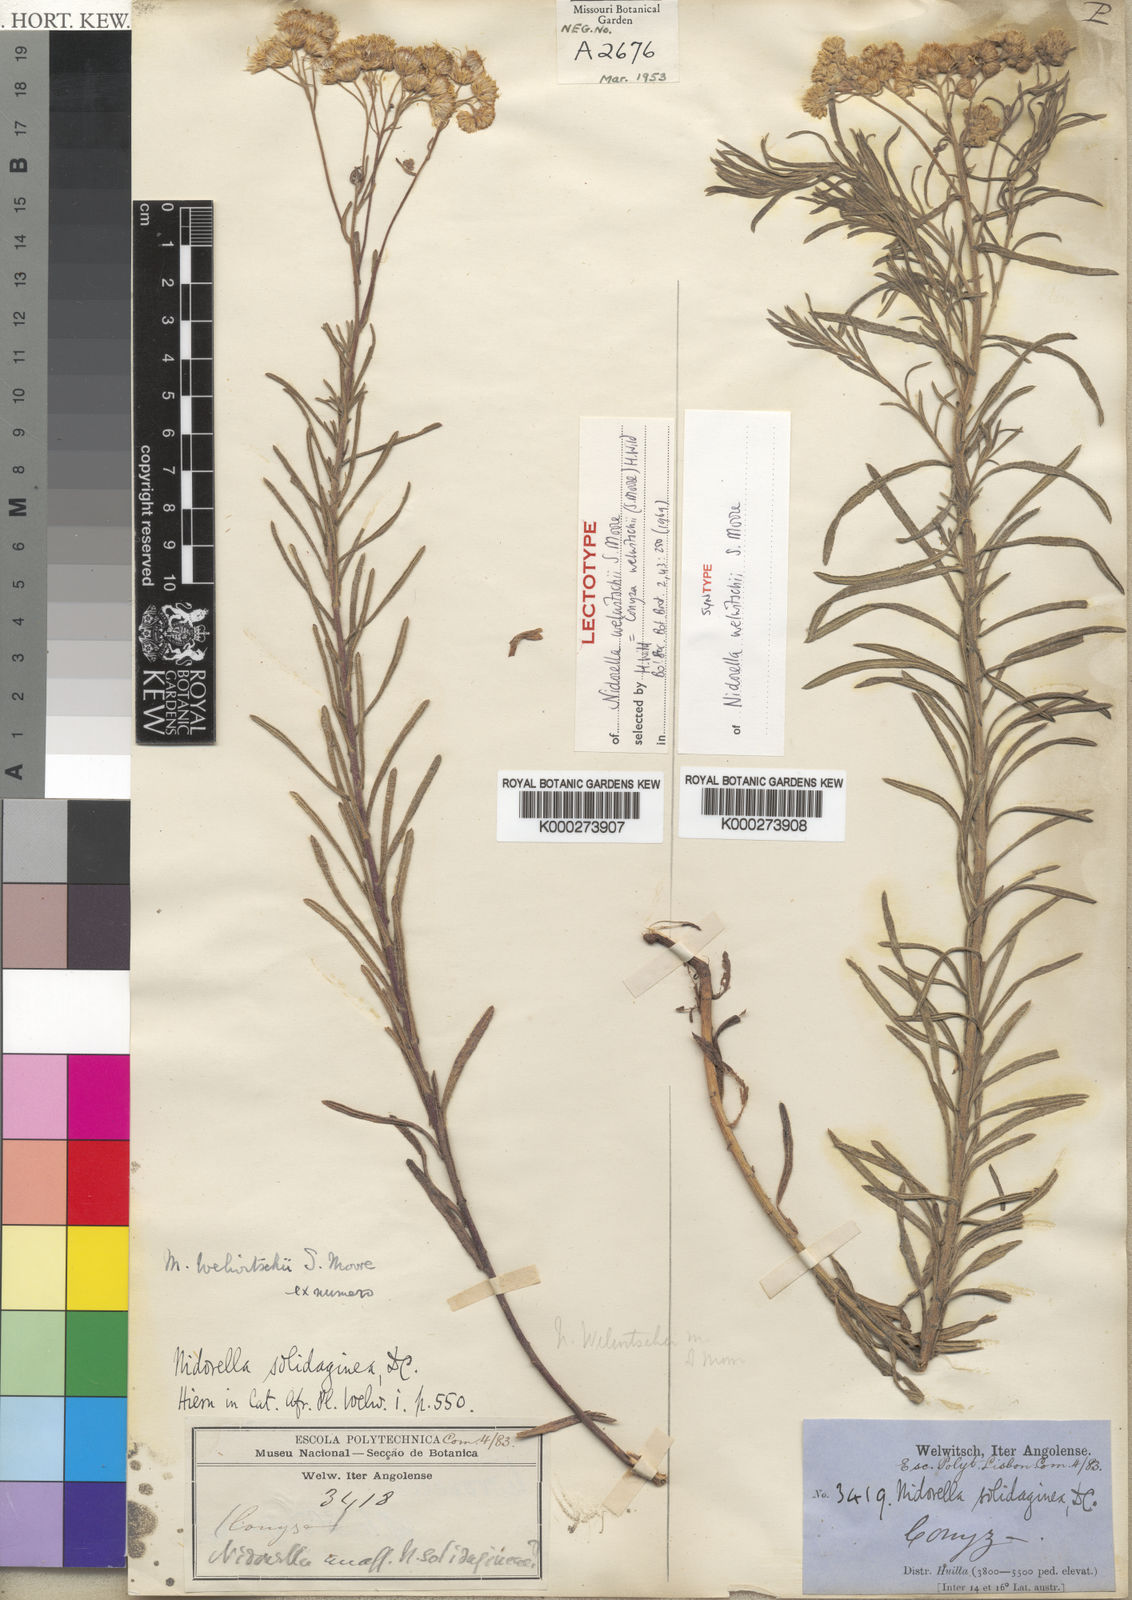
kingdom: Plantae
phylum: Tracheophyta
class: Magnoliopsida
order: Asterales
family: Asteraceae
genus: Nidorella
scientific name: Nidorella welwitschii
